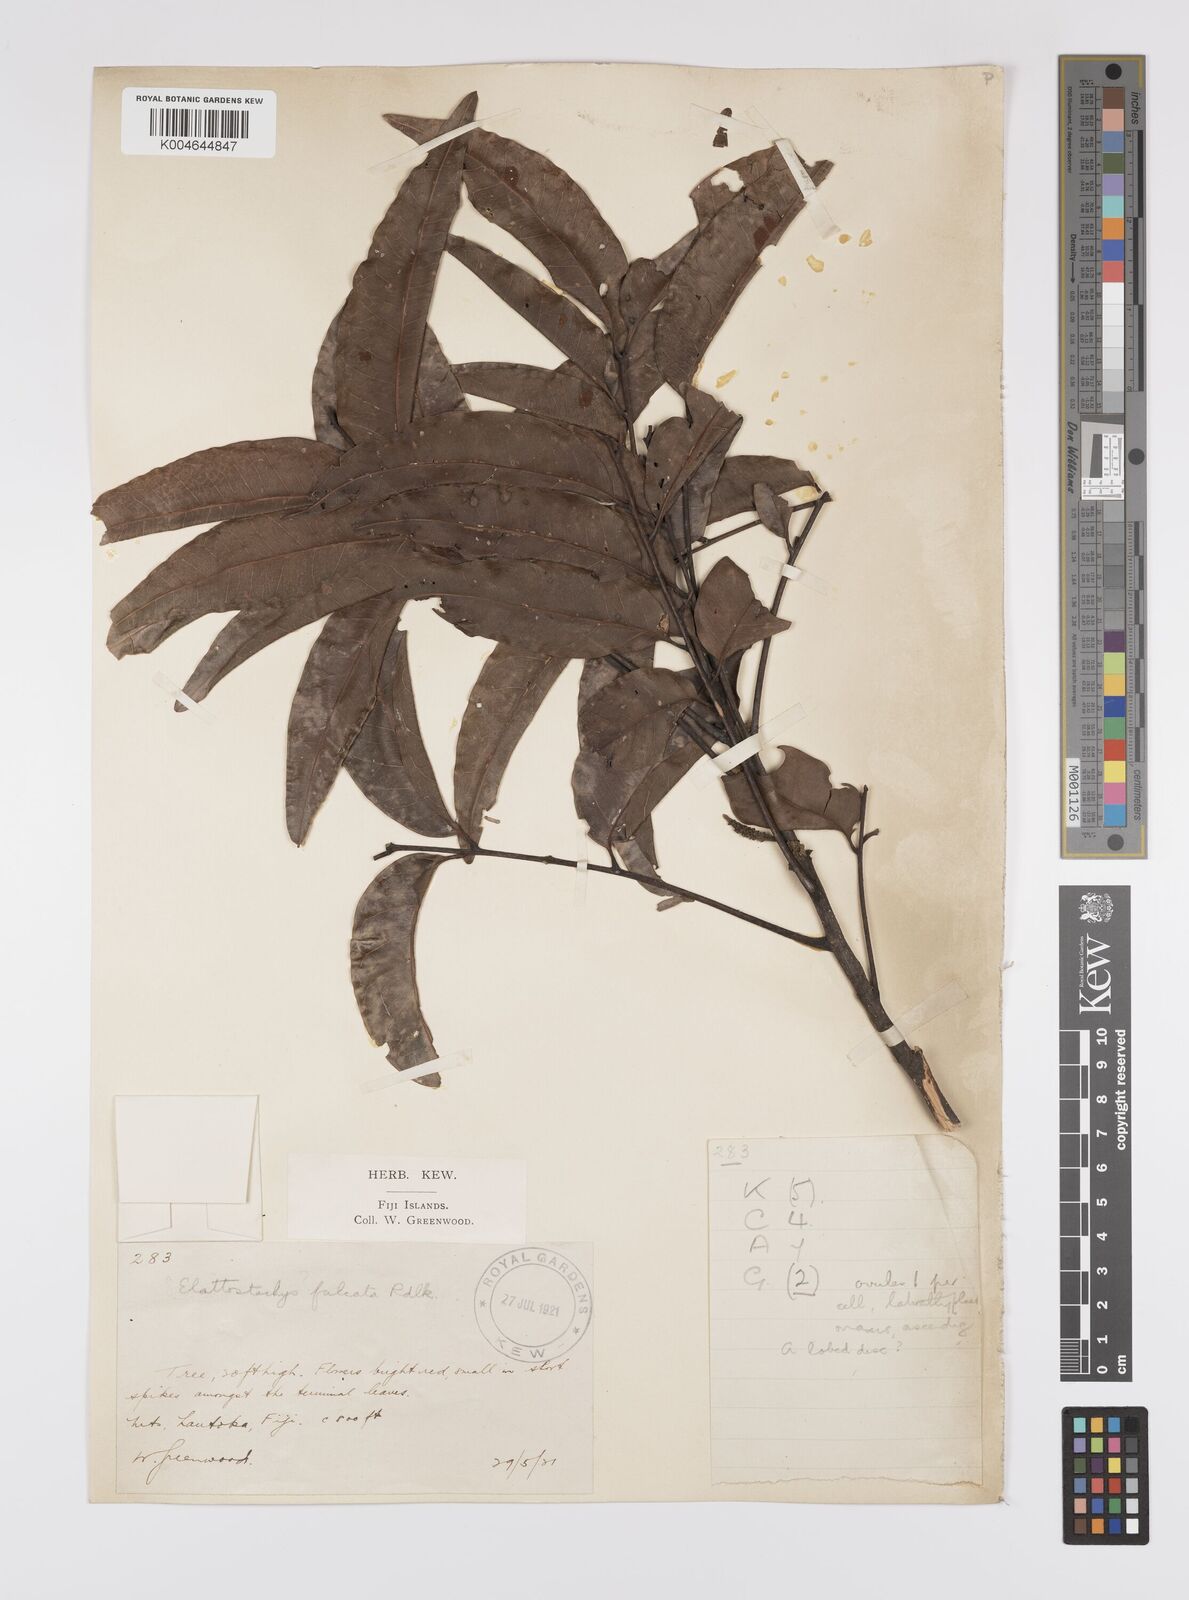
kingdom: Plantae
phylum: Tracheophyta
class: Magnoliopsida
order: Sapindales
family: Sapindaceae
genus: Elattostachys
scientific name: Elattostachys apetala
